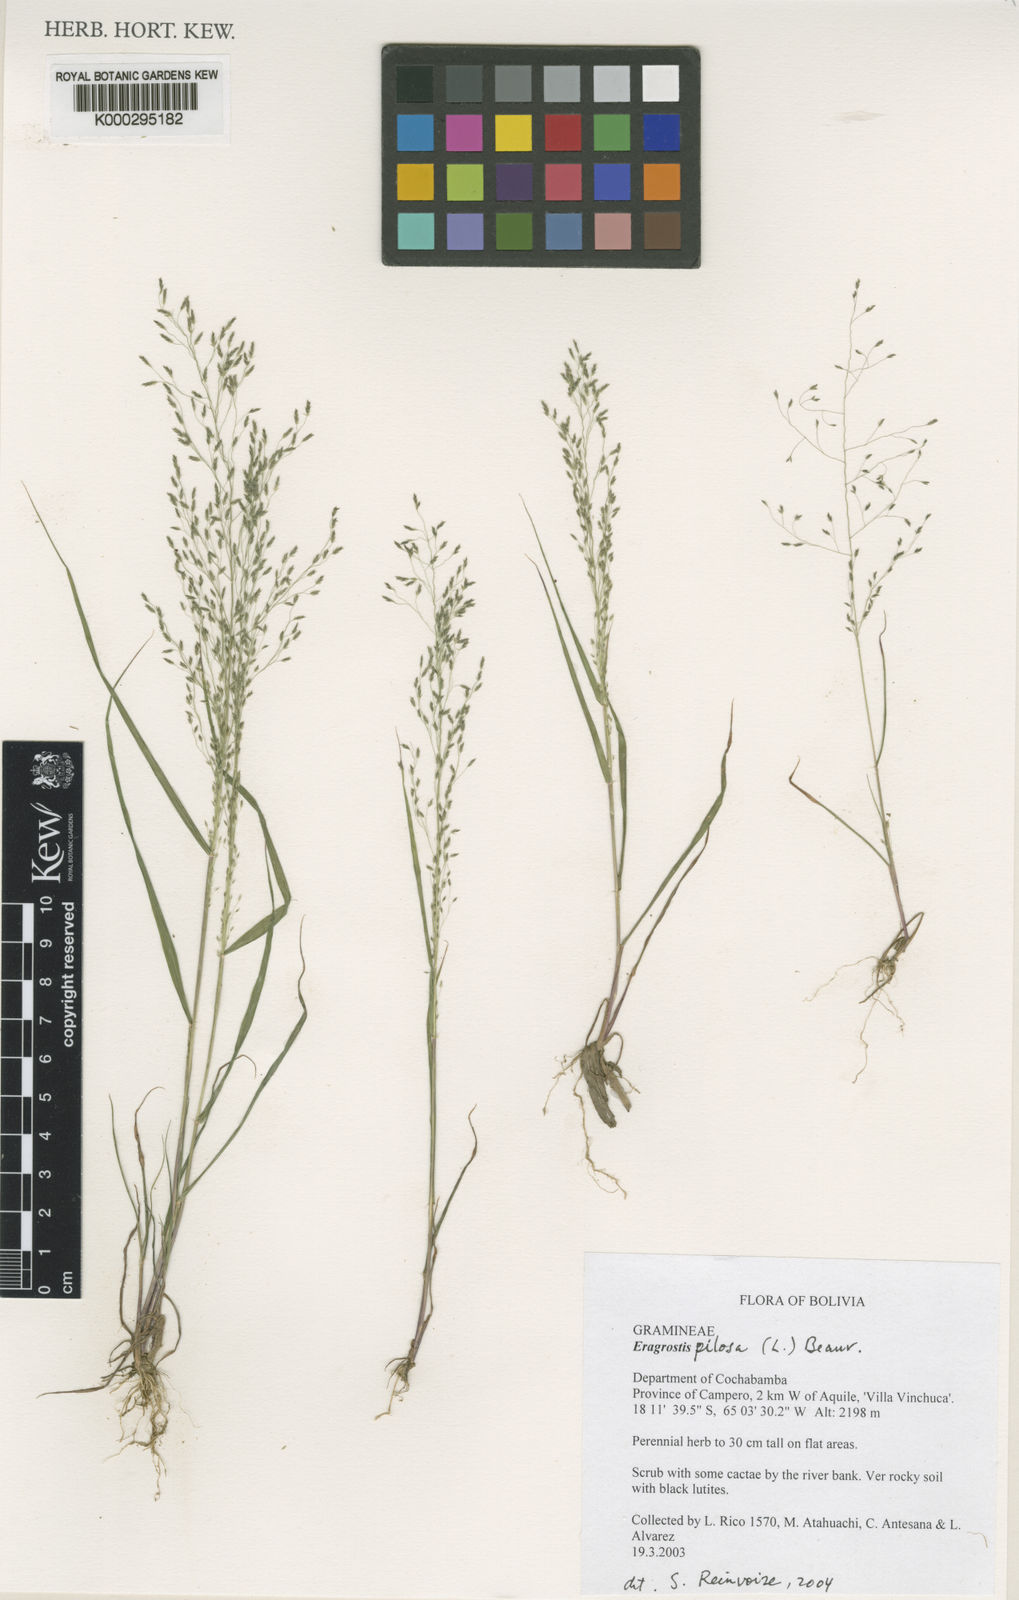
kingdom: Plantae
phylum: Tracheophyta
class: Liliopsida
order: Poales
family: Poaceae
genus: Eragrostis
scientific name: Eragrostis pilosa
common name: Indian lovegrass
